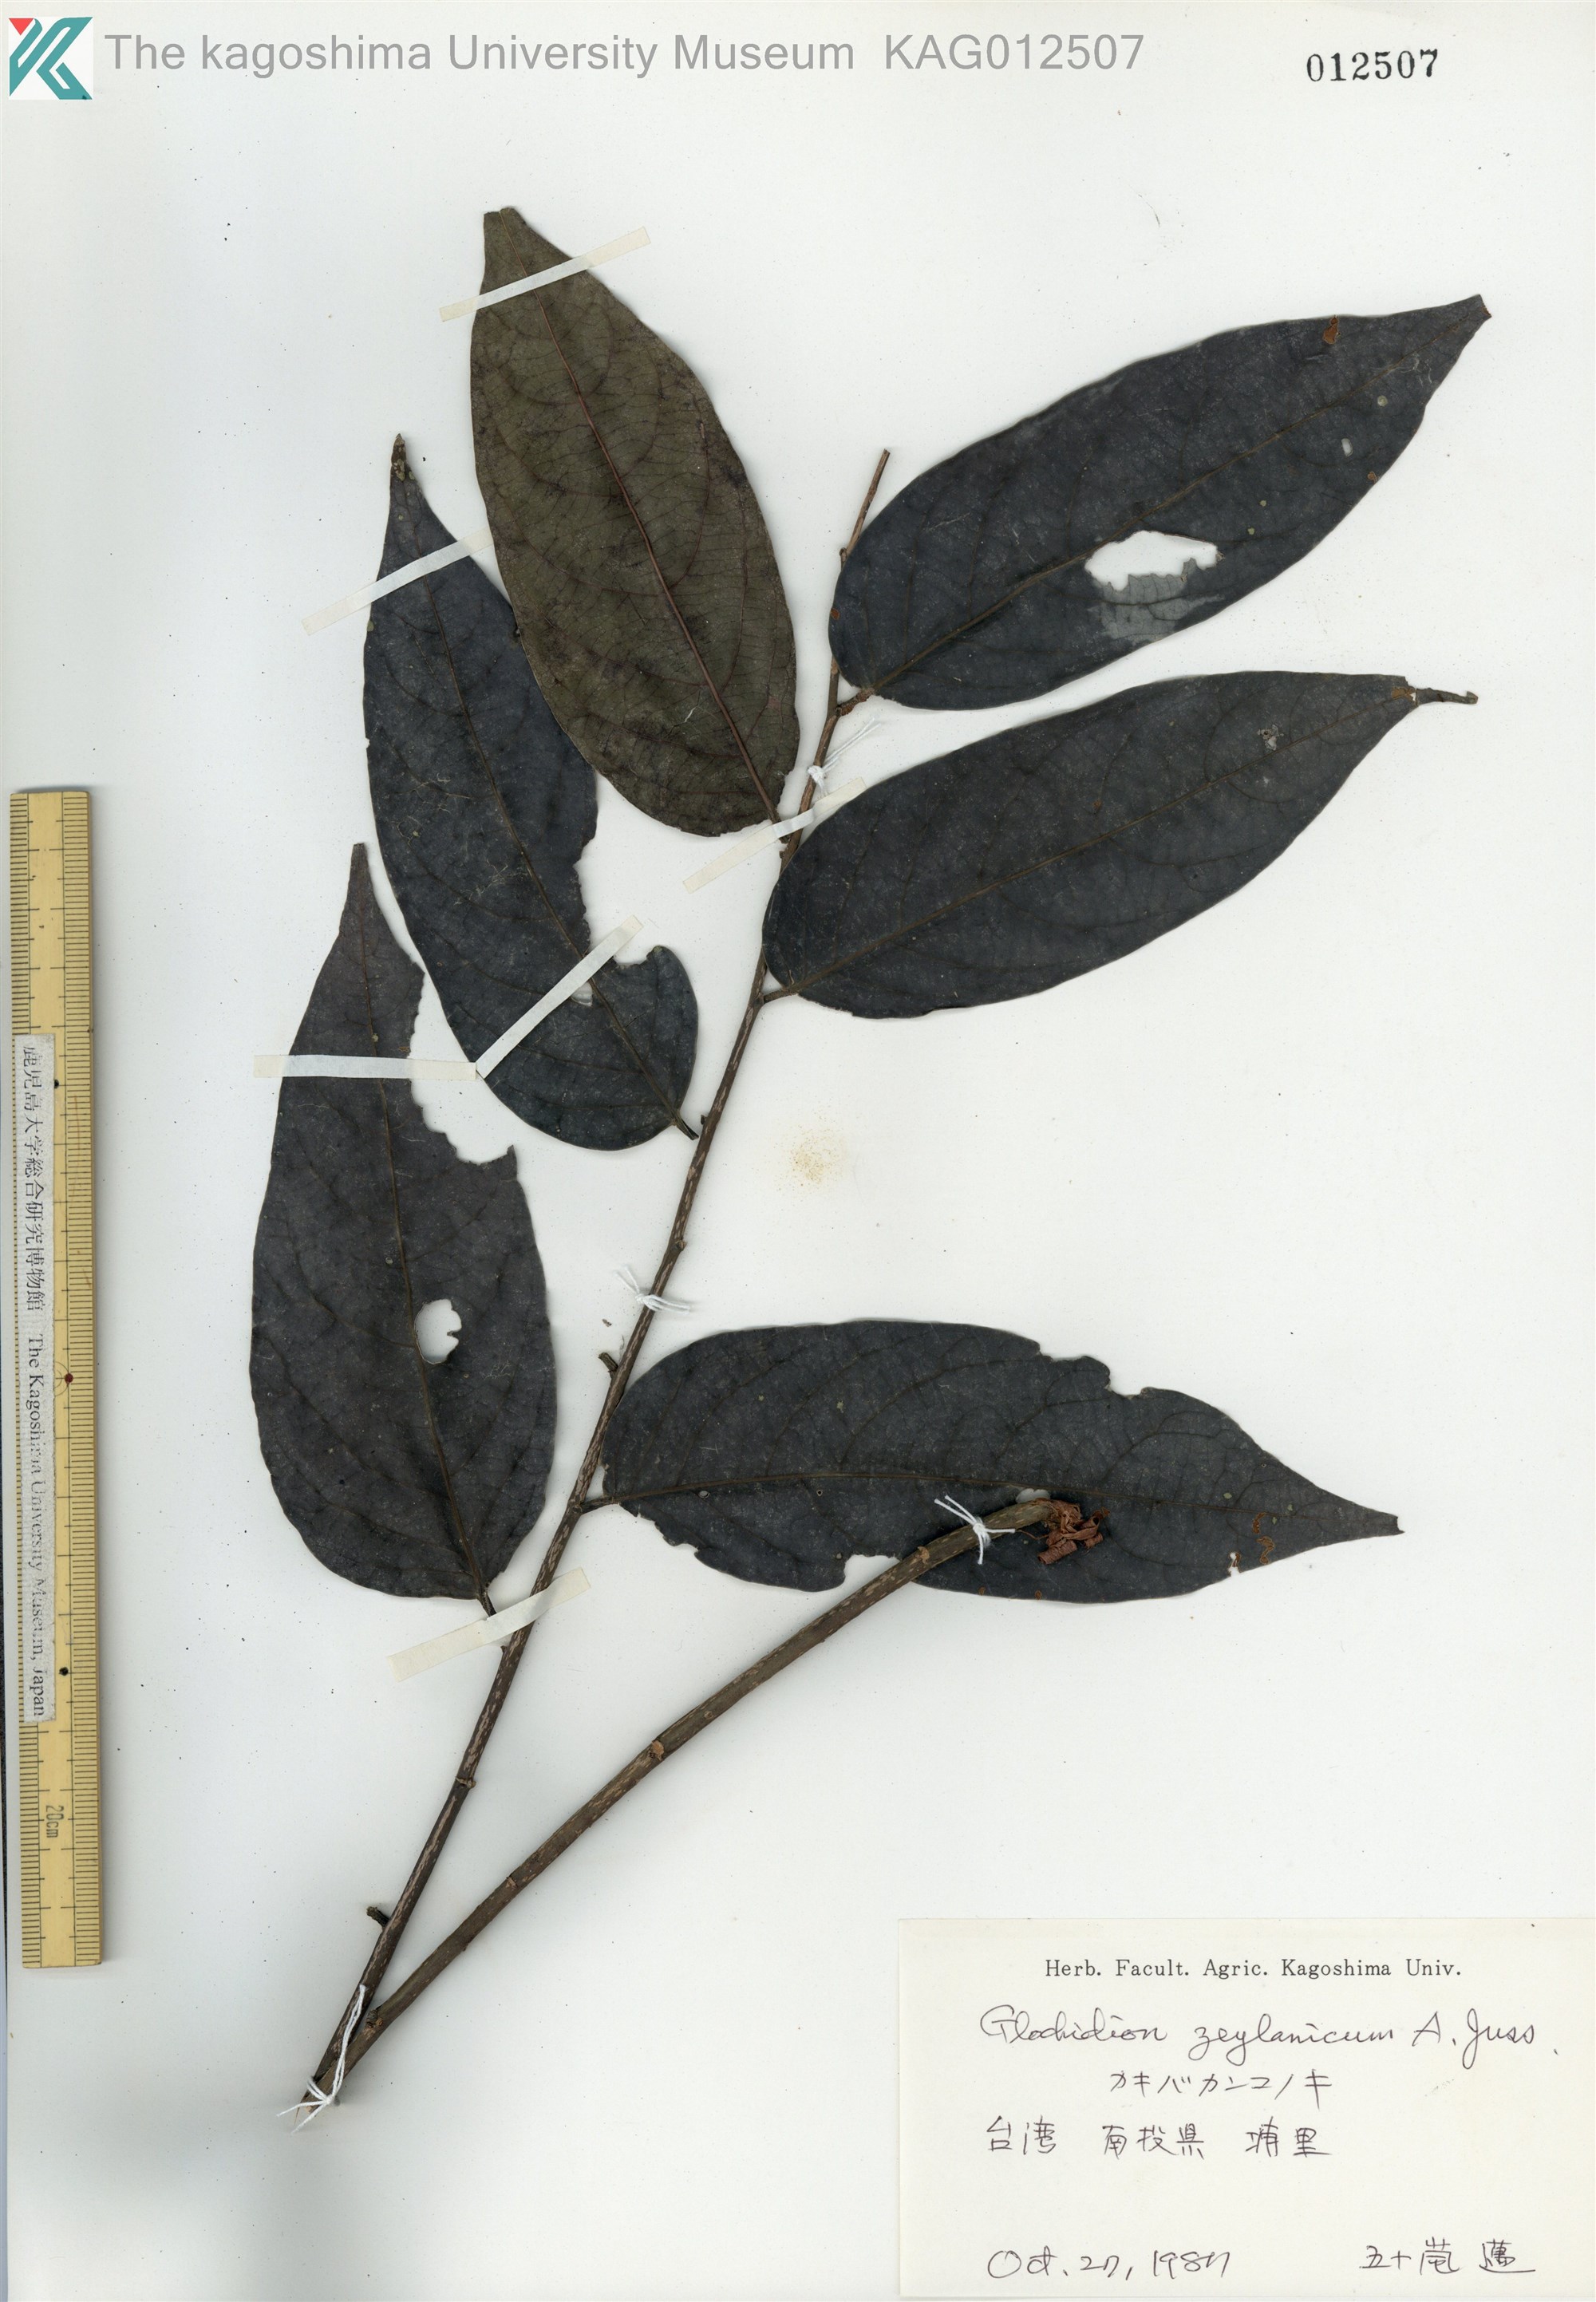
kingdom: Plantae
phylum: Tracheophyta
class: Magnoliopsida
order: Malpighiales
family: Phyllanthaceae
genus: Glochidion
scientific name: Glochidion zeylanicum
